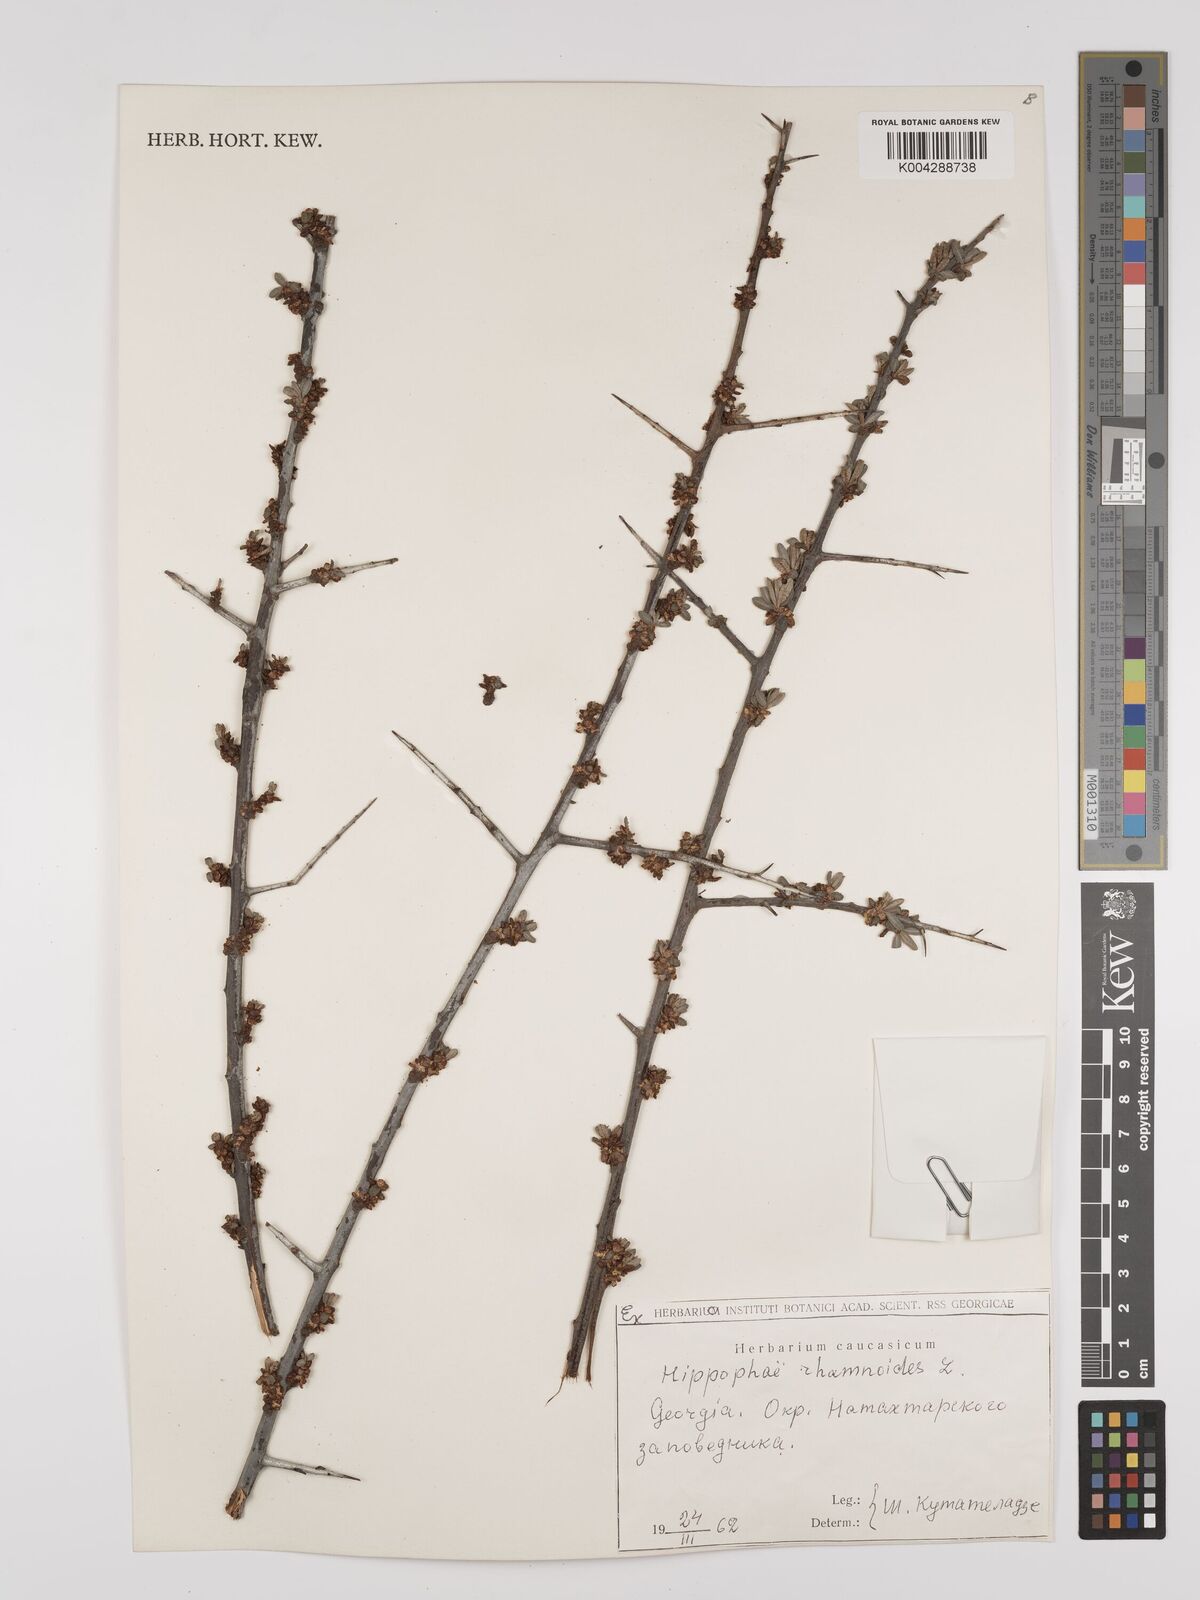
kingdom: Plantae
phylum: Tracheophyta
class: Magnoliopsida
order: Rosales
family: Elaeagnaceae
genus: Hippophae
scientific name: Hippophae rhamnoides
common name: Sea-buckthorn
